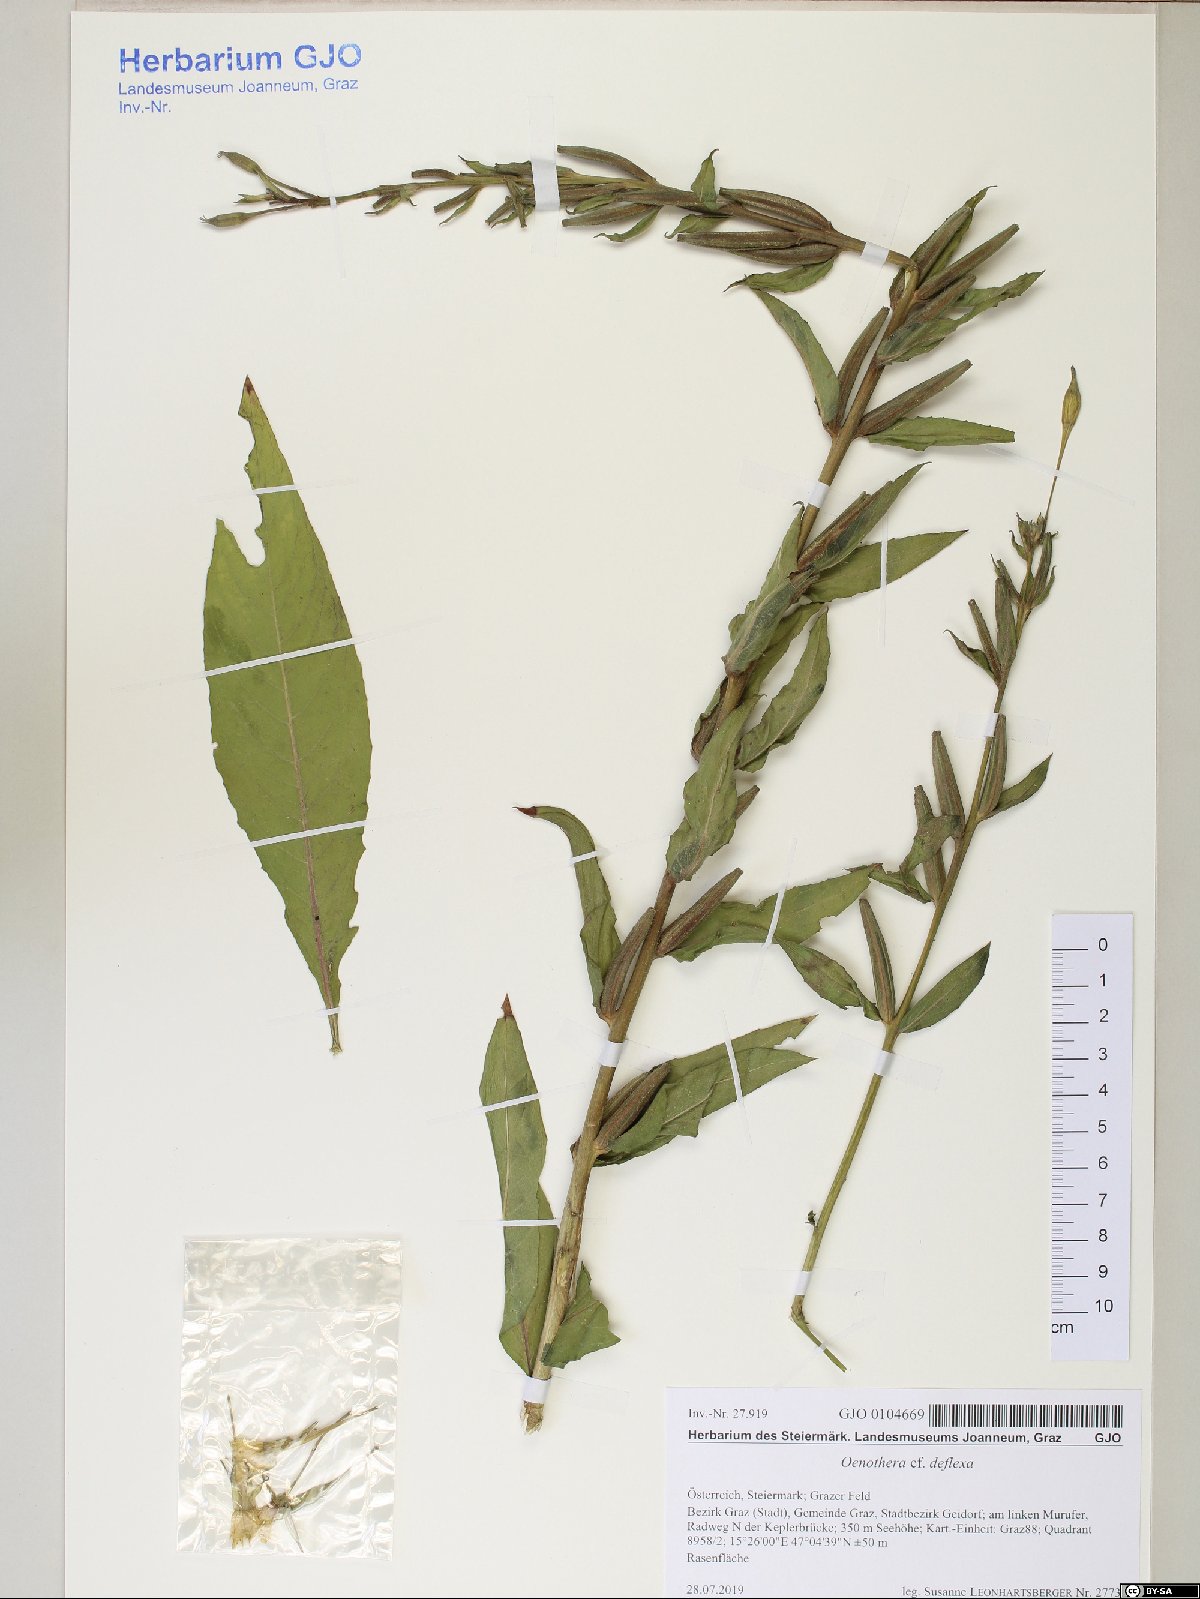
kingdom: Plantae
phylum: Tracheophyta
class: Magnoliopsida
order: Myrtales
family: Onagraceae
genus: Oenothera
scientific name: Oenothera parviflora
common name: Least evening-primrose
